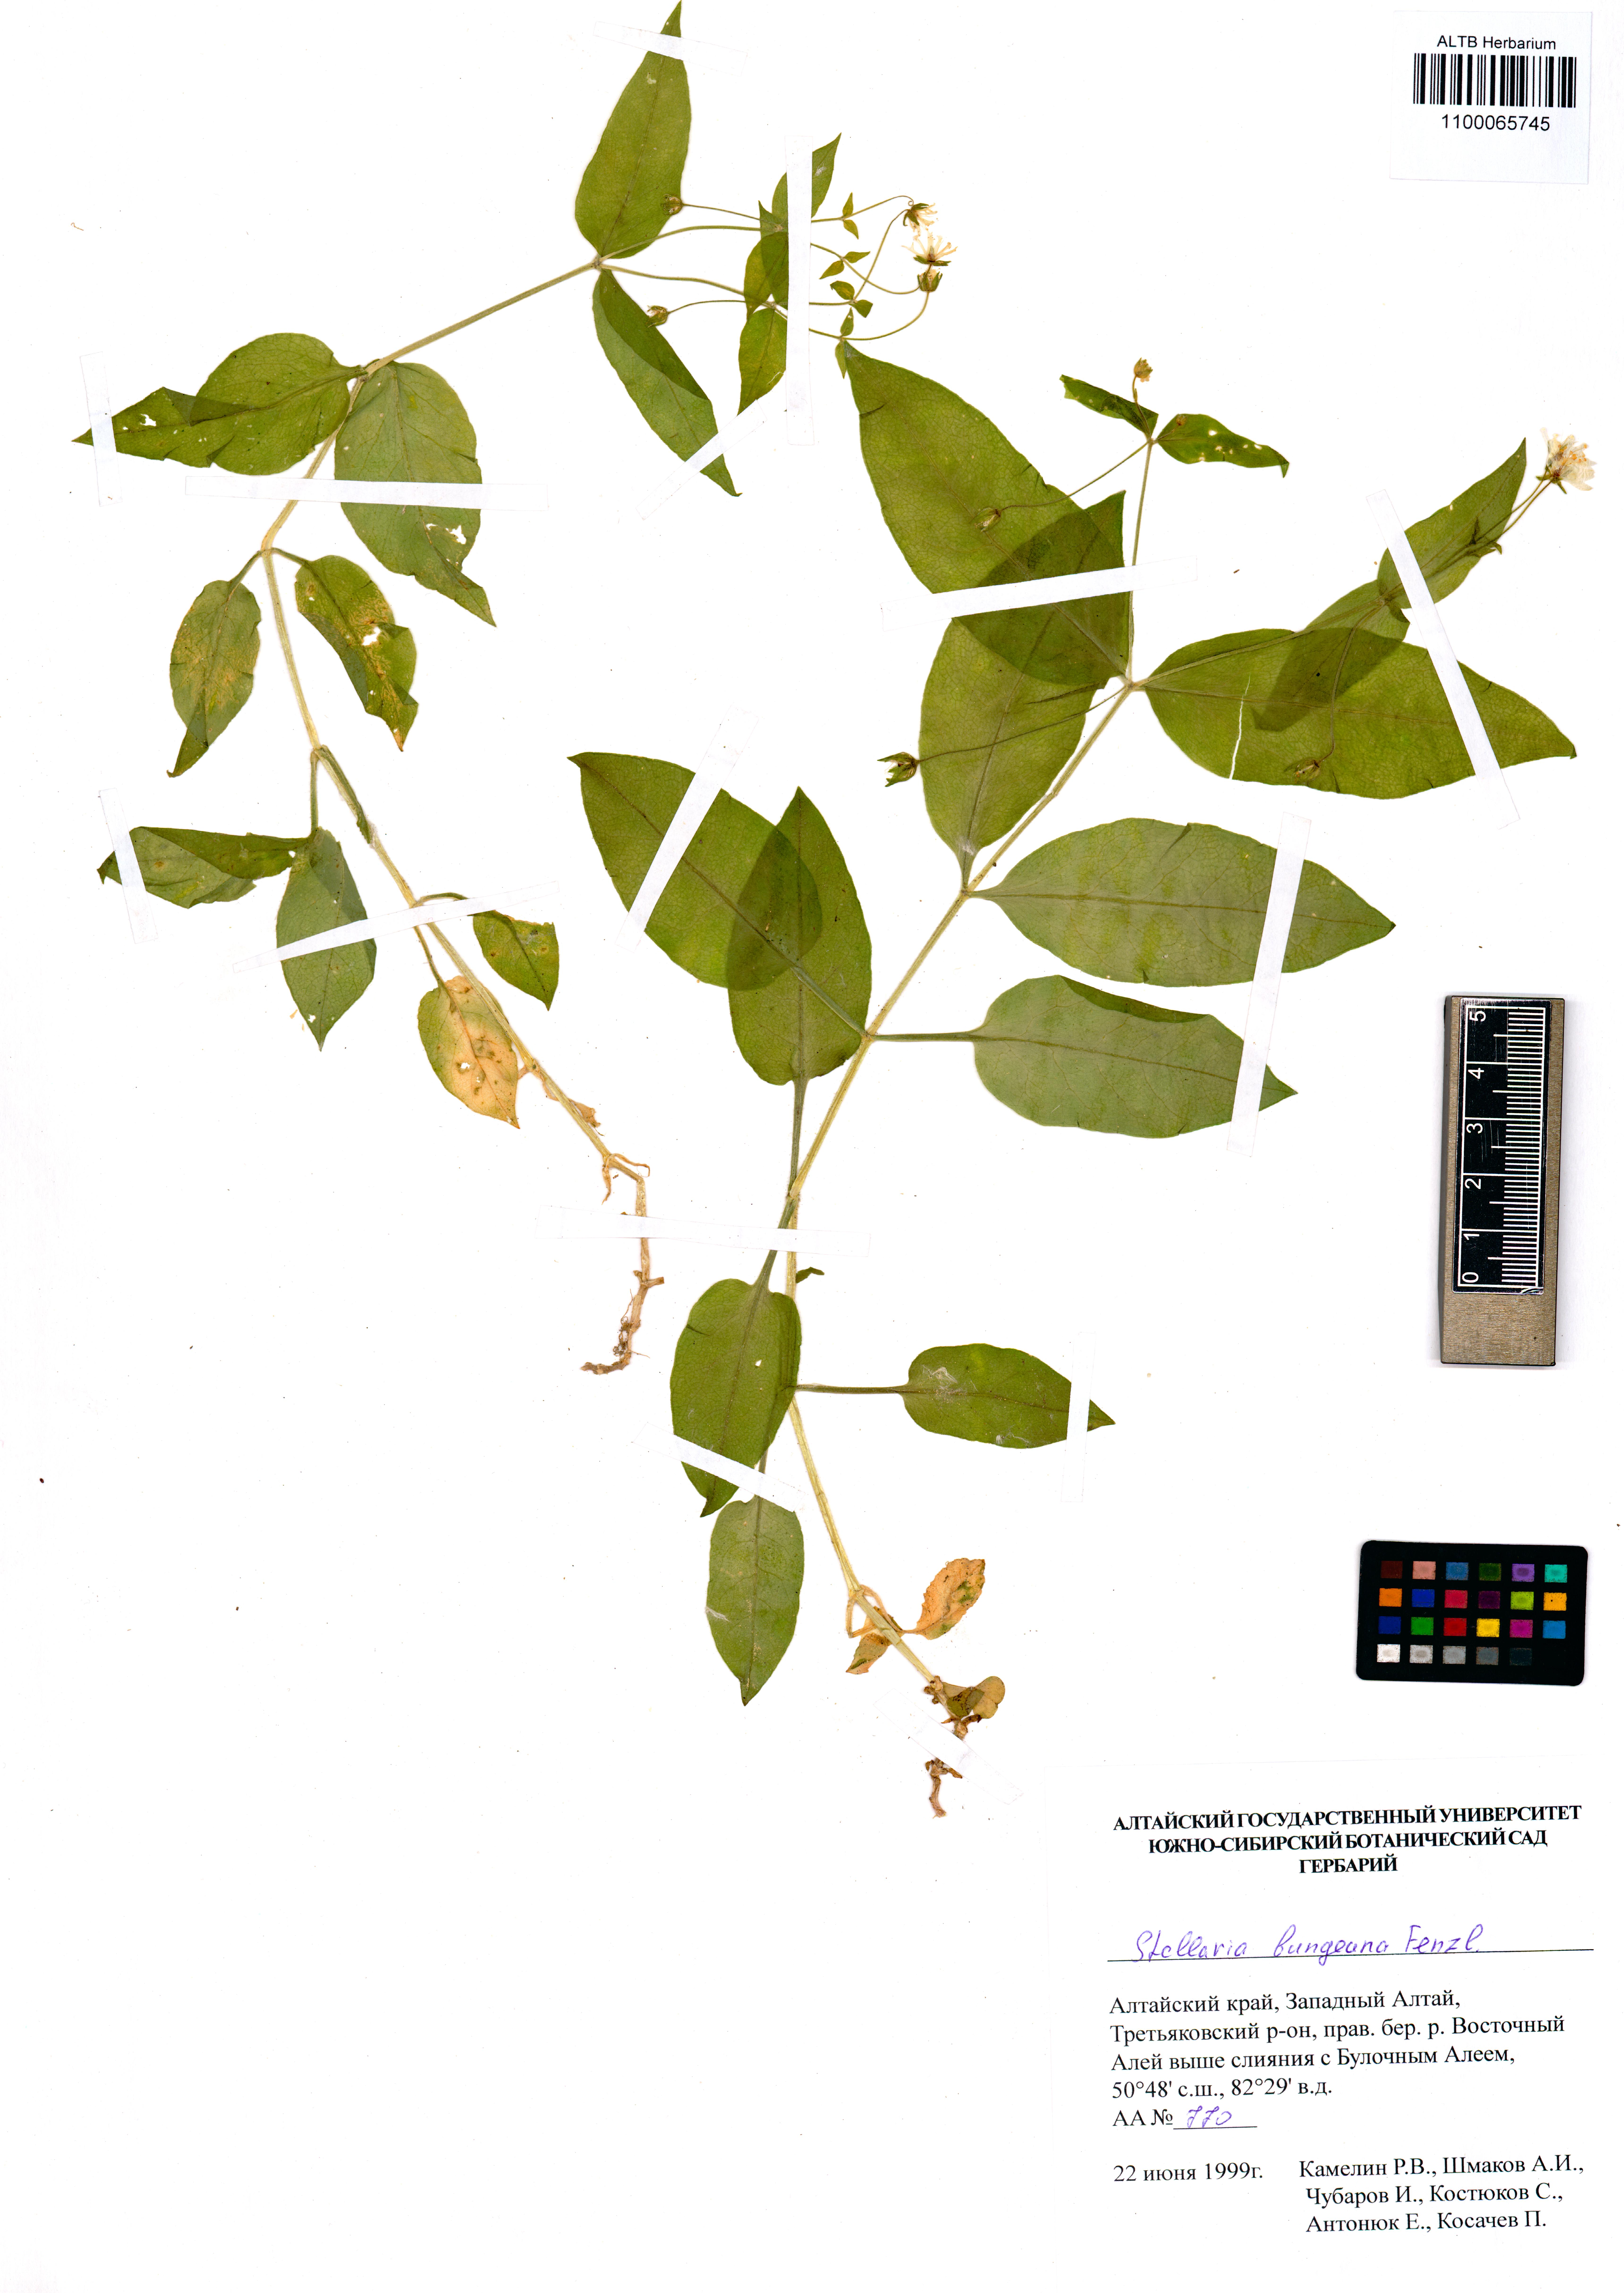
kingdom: Plantae
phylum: Tracheophyta
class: Magnoliopsida
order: Caryophyllales
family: Caryophyllaceae
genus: Stellaria
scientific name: Stellaria bungeana
